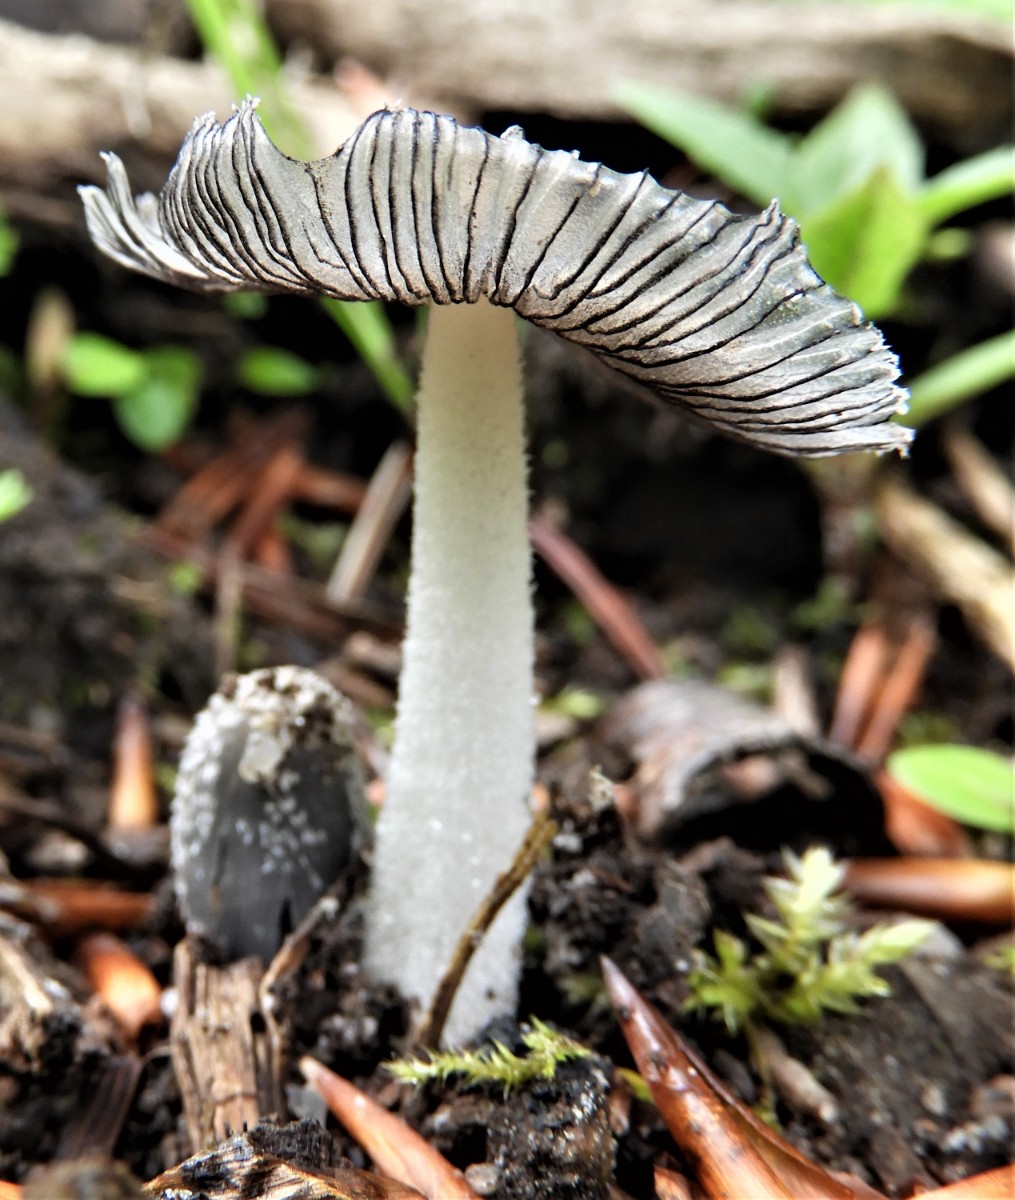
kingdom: Fungi
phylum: Basidiomycota
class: Agaricomycetes
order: Agaricales
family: Psathyrellaceae
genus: Coprinopsis
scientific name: Coprinopsis lagopus
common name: dunstokket blækhat
